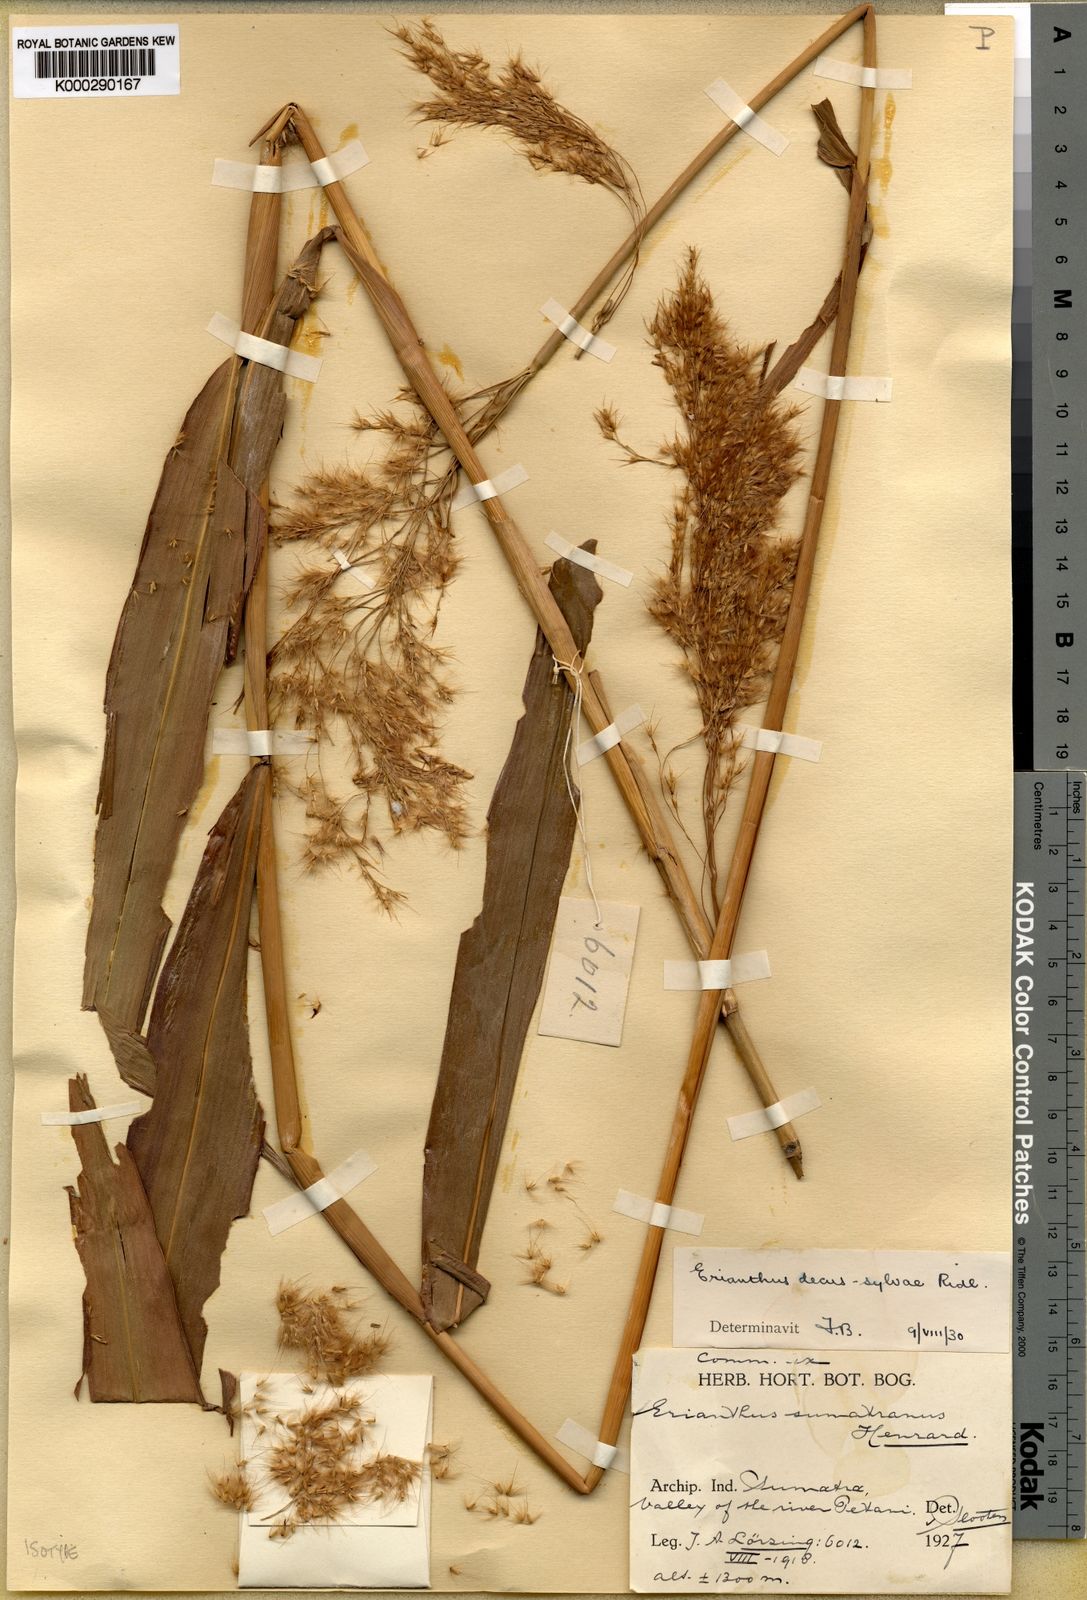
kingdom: Plantae
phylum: Tracheophyta
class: Liliopsida
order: Poales
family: Poaceae
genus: Saccharum
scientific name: Saccharum beccarii
